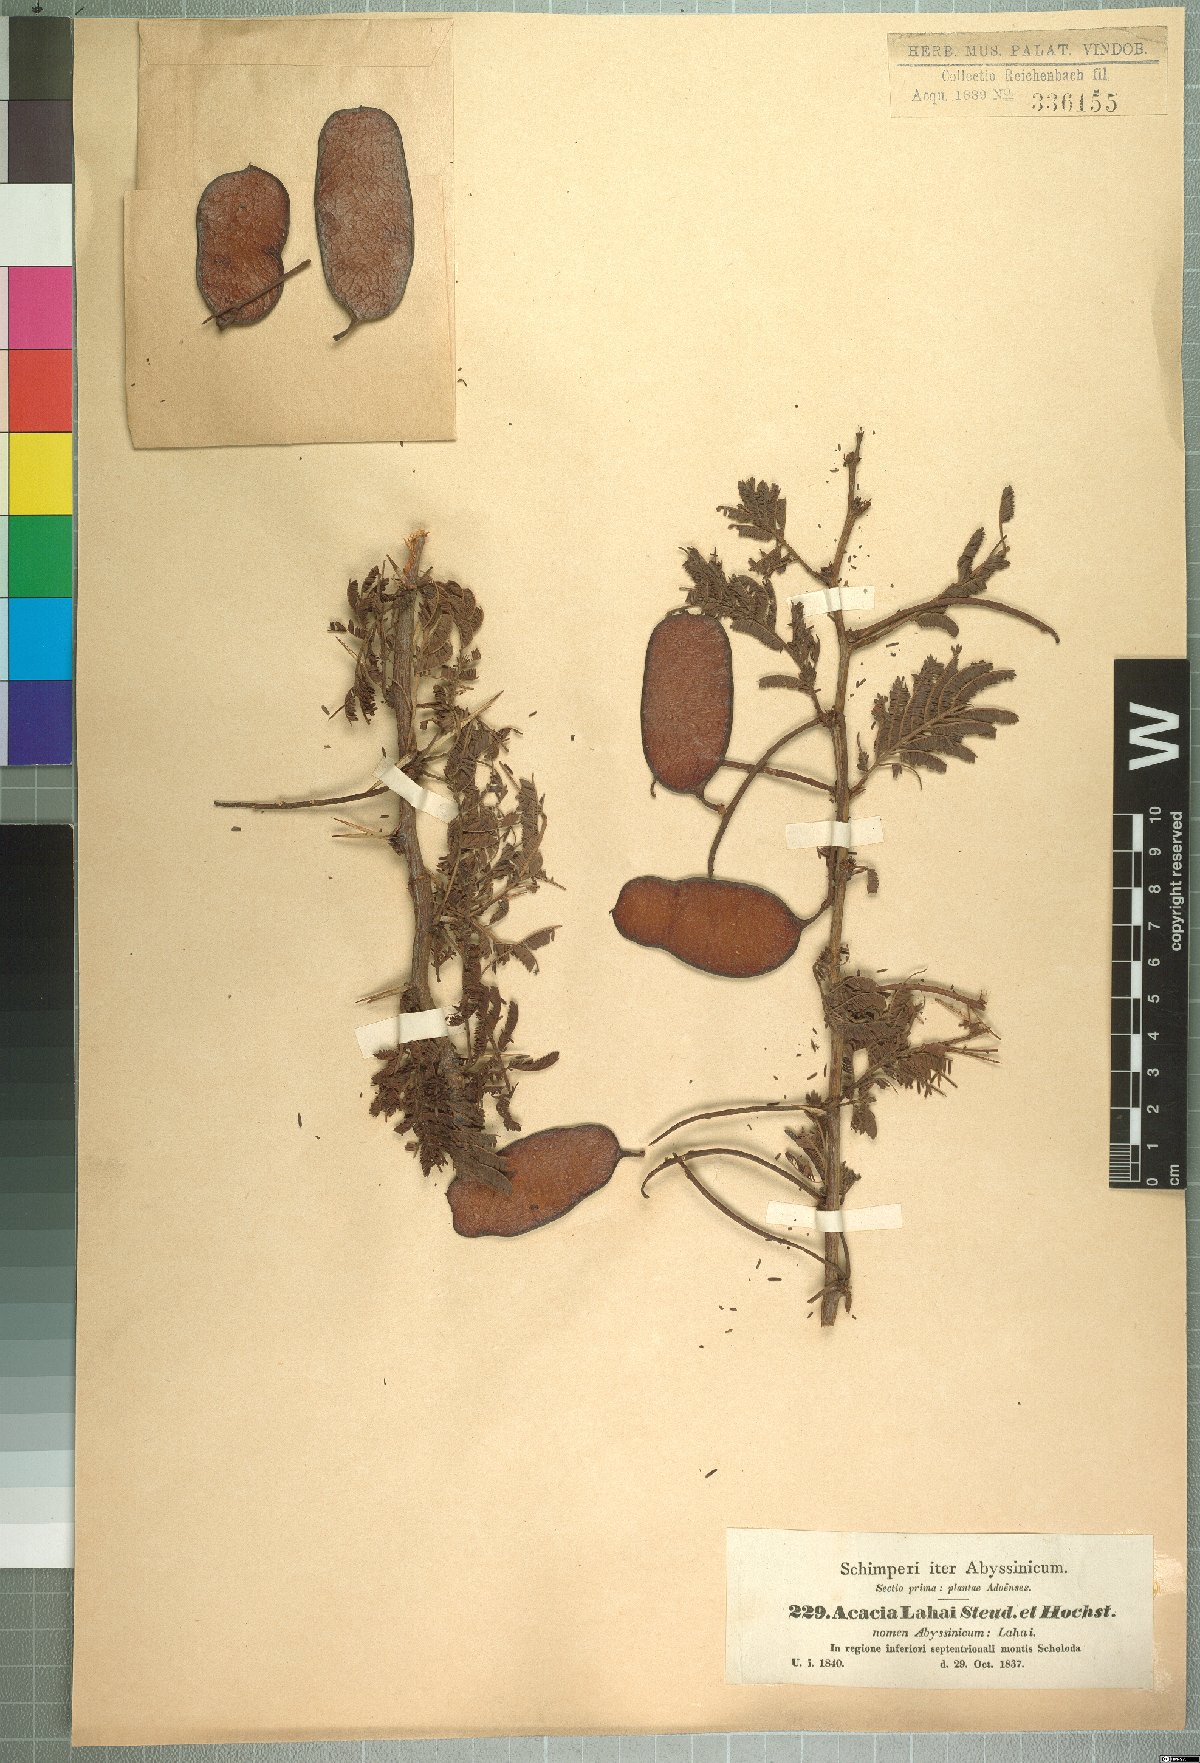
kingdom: Plantae
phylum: Tracheophyta
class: Magnoliopsida
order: Fabales
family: Fabaceae
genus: Vachellia
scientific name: Vachellia lahai
